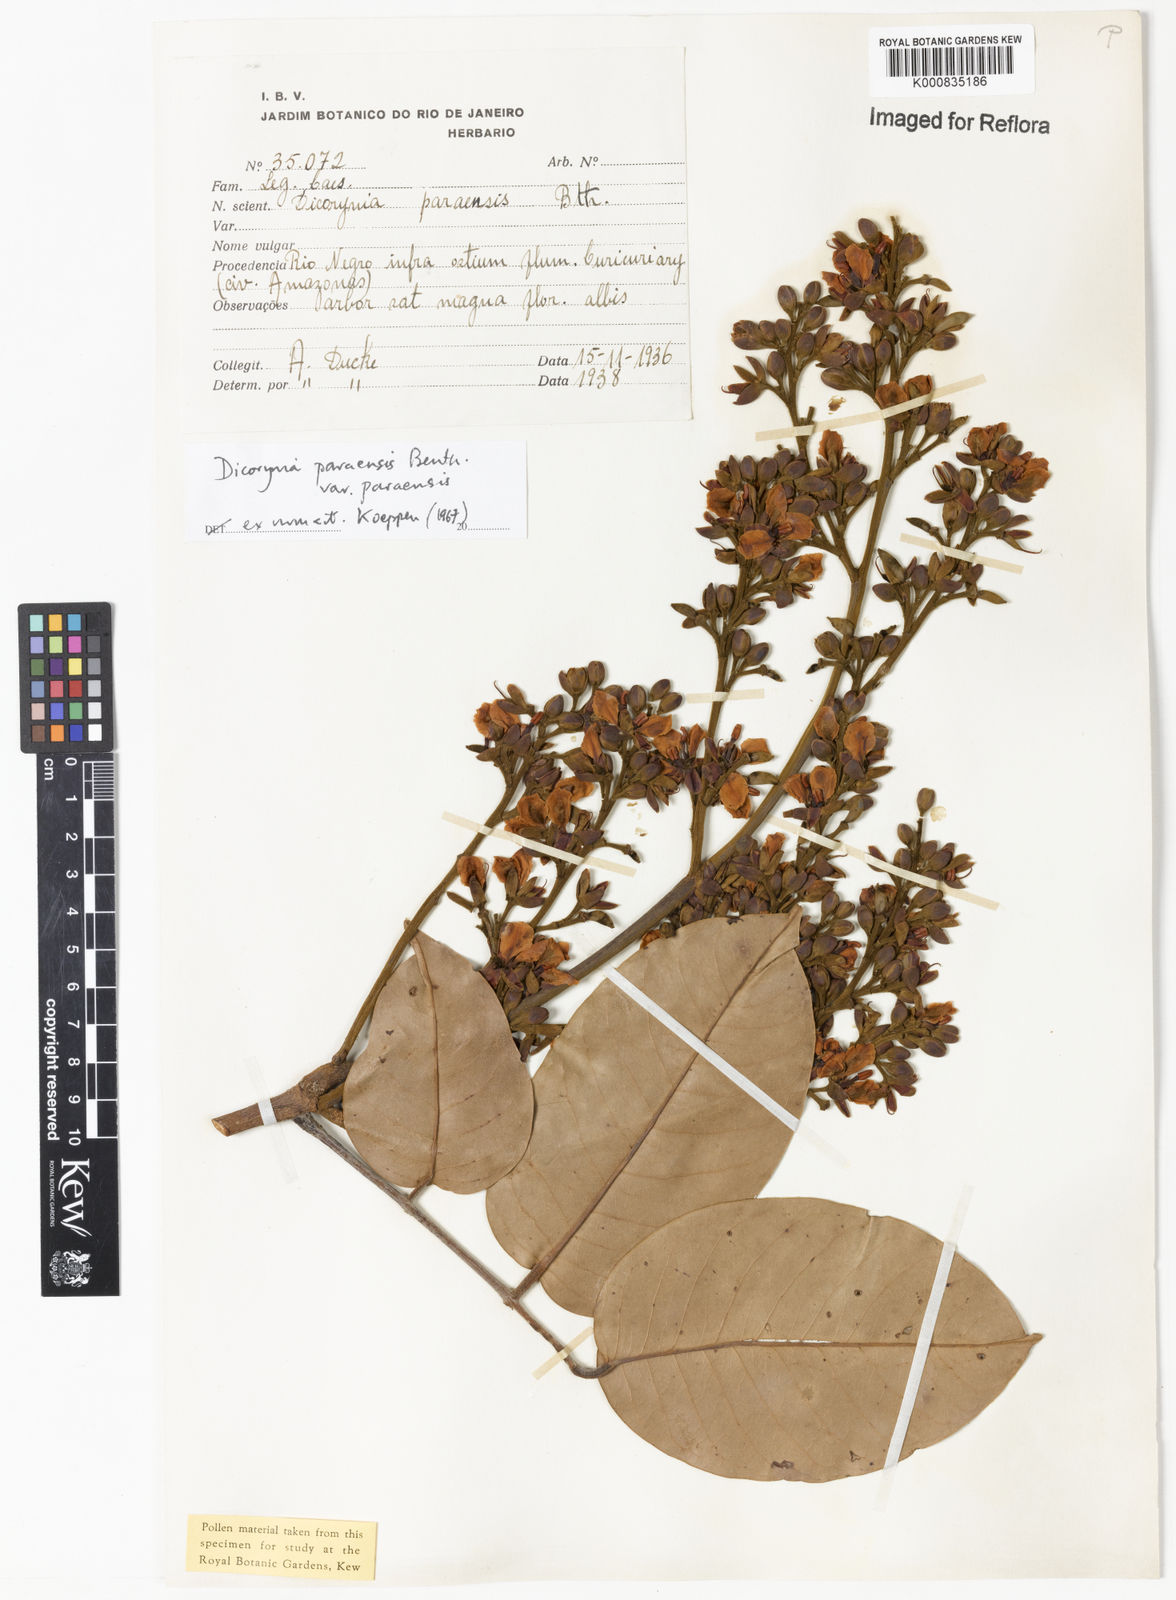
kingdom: Plantae
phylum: Tracheophyta
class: Magnoliopsida
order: Fabales
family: Fabaceae
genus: Dicorynia
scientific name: Dicorynia paraensis
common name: Angelique
